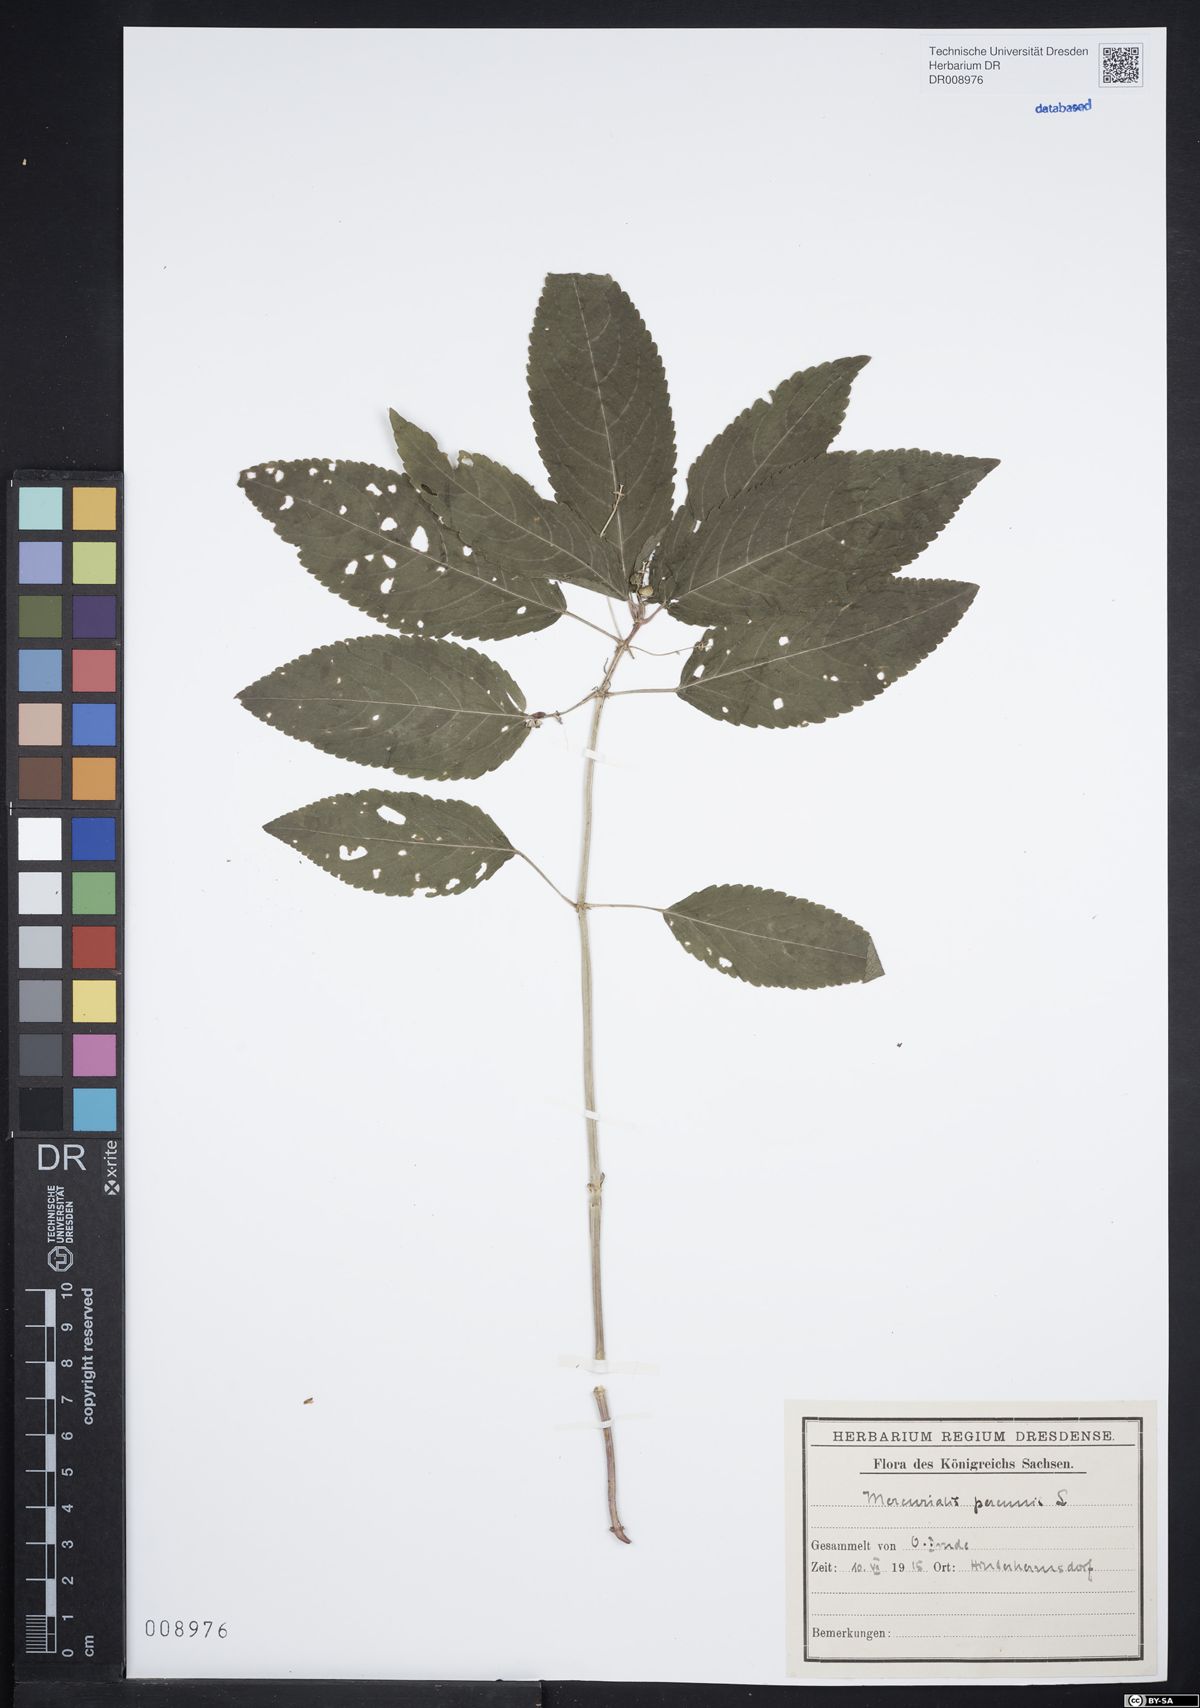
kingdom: Plantae
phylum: Tracheophyta
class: Magnoliopsida
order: Malpighiales
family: Euphorbiaceae
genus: Mercurialis
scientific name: Mercurialis perennis
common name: Dog mercury
